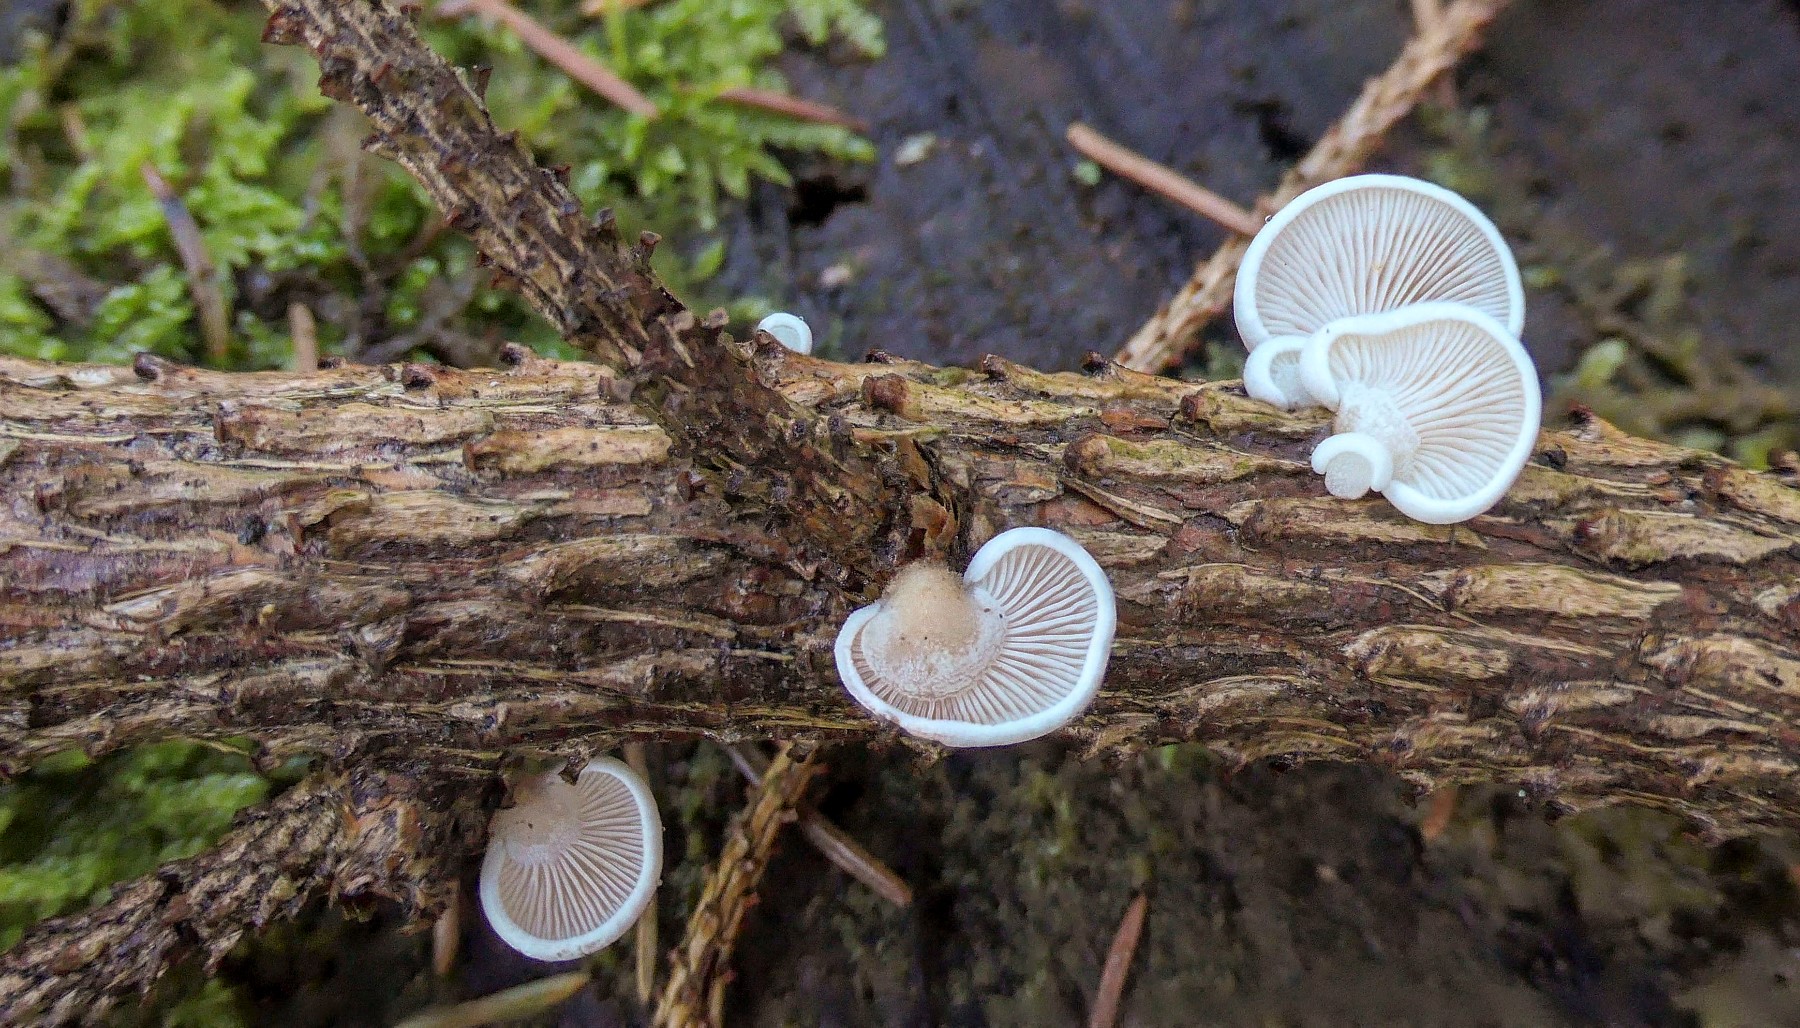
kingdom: Fungi
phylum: Basidiomycota
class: Agaricomycetes
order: Agaricales
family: Mycenaceae
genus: Panellus
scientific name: Panellus mitis
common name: mild epaulethat
